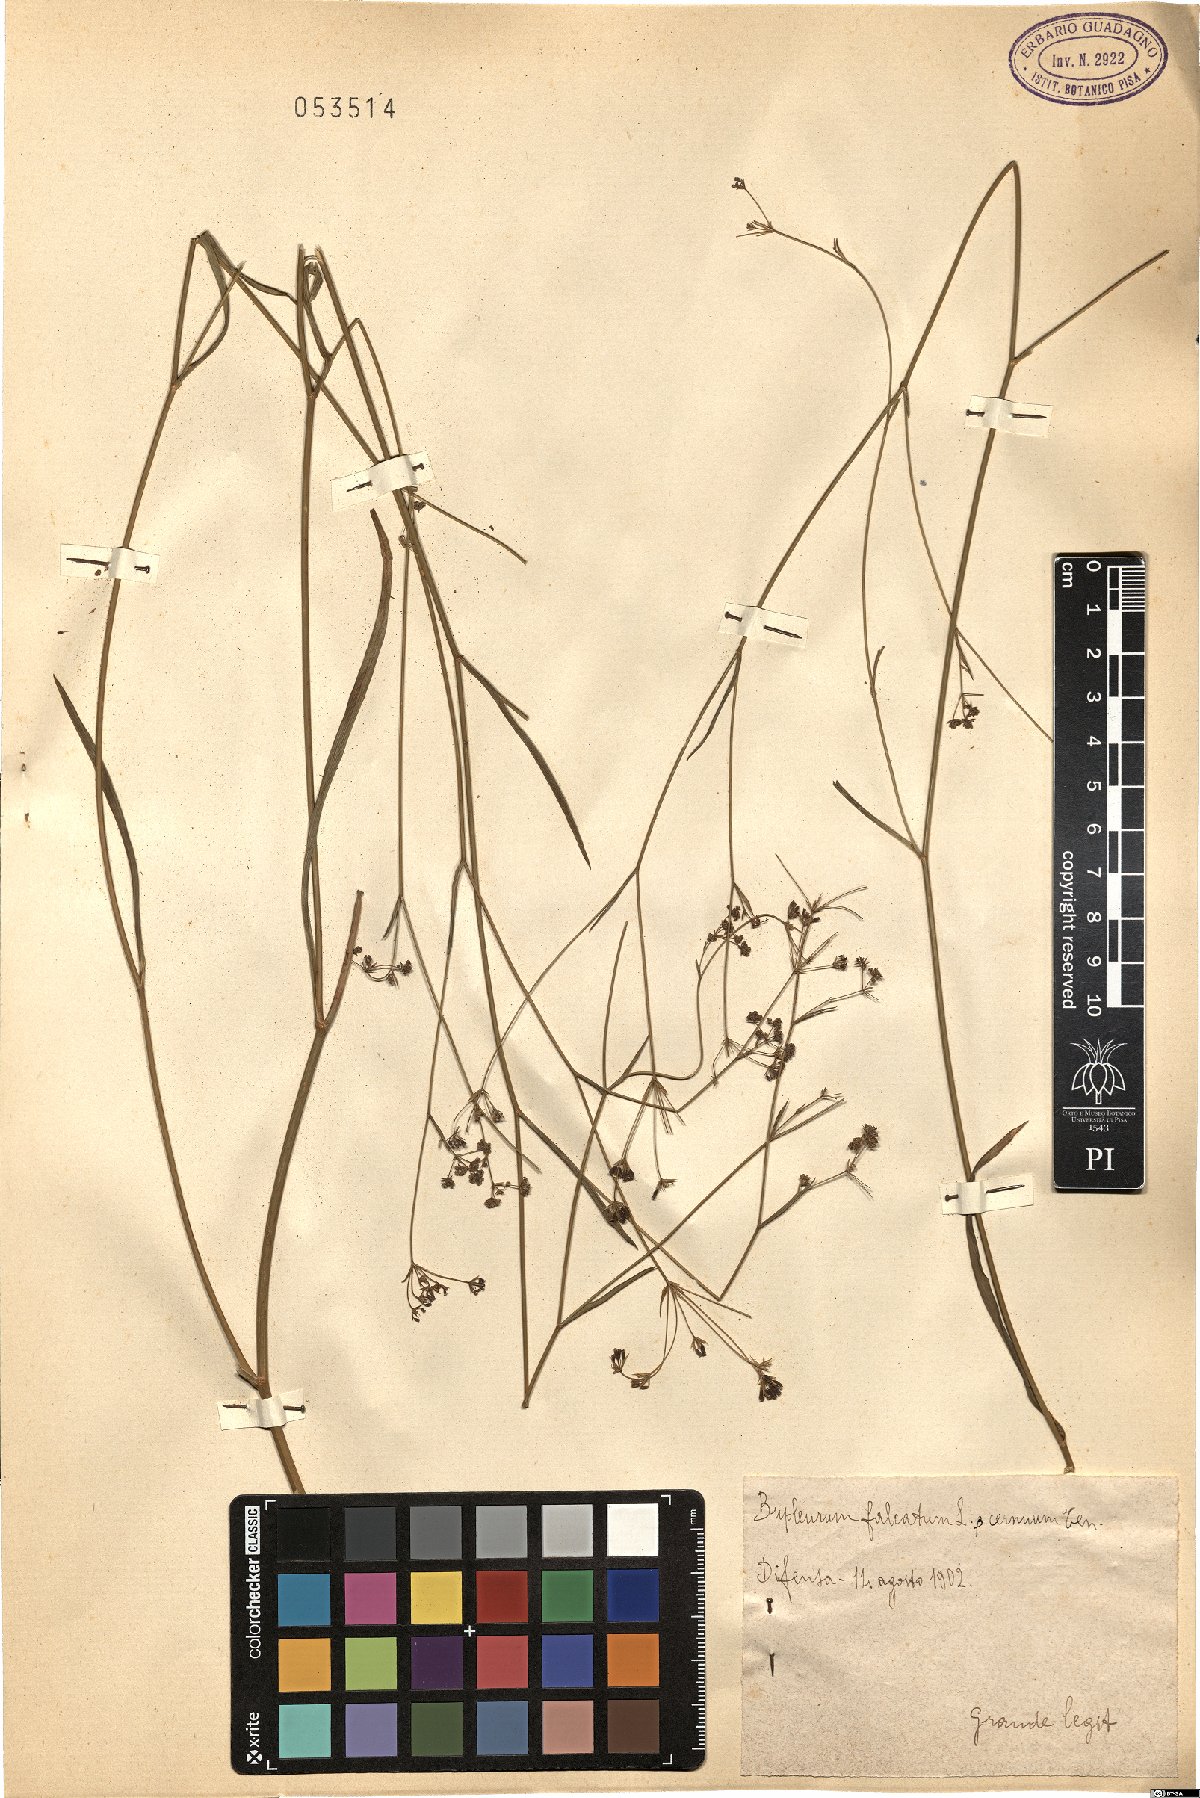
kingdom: Plantae
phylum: Tracheophyta
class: Magnoliopsida
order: Apiales
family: Apiaceae
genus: Bupleurum
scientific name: Bupleurum exaltatum
